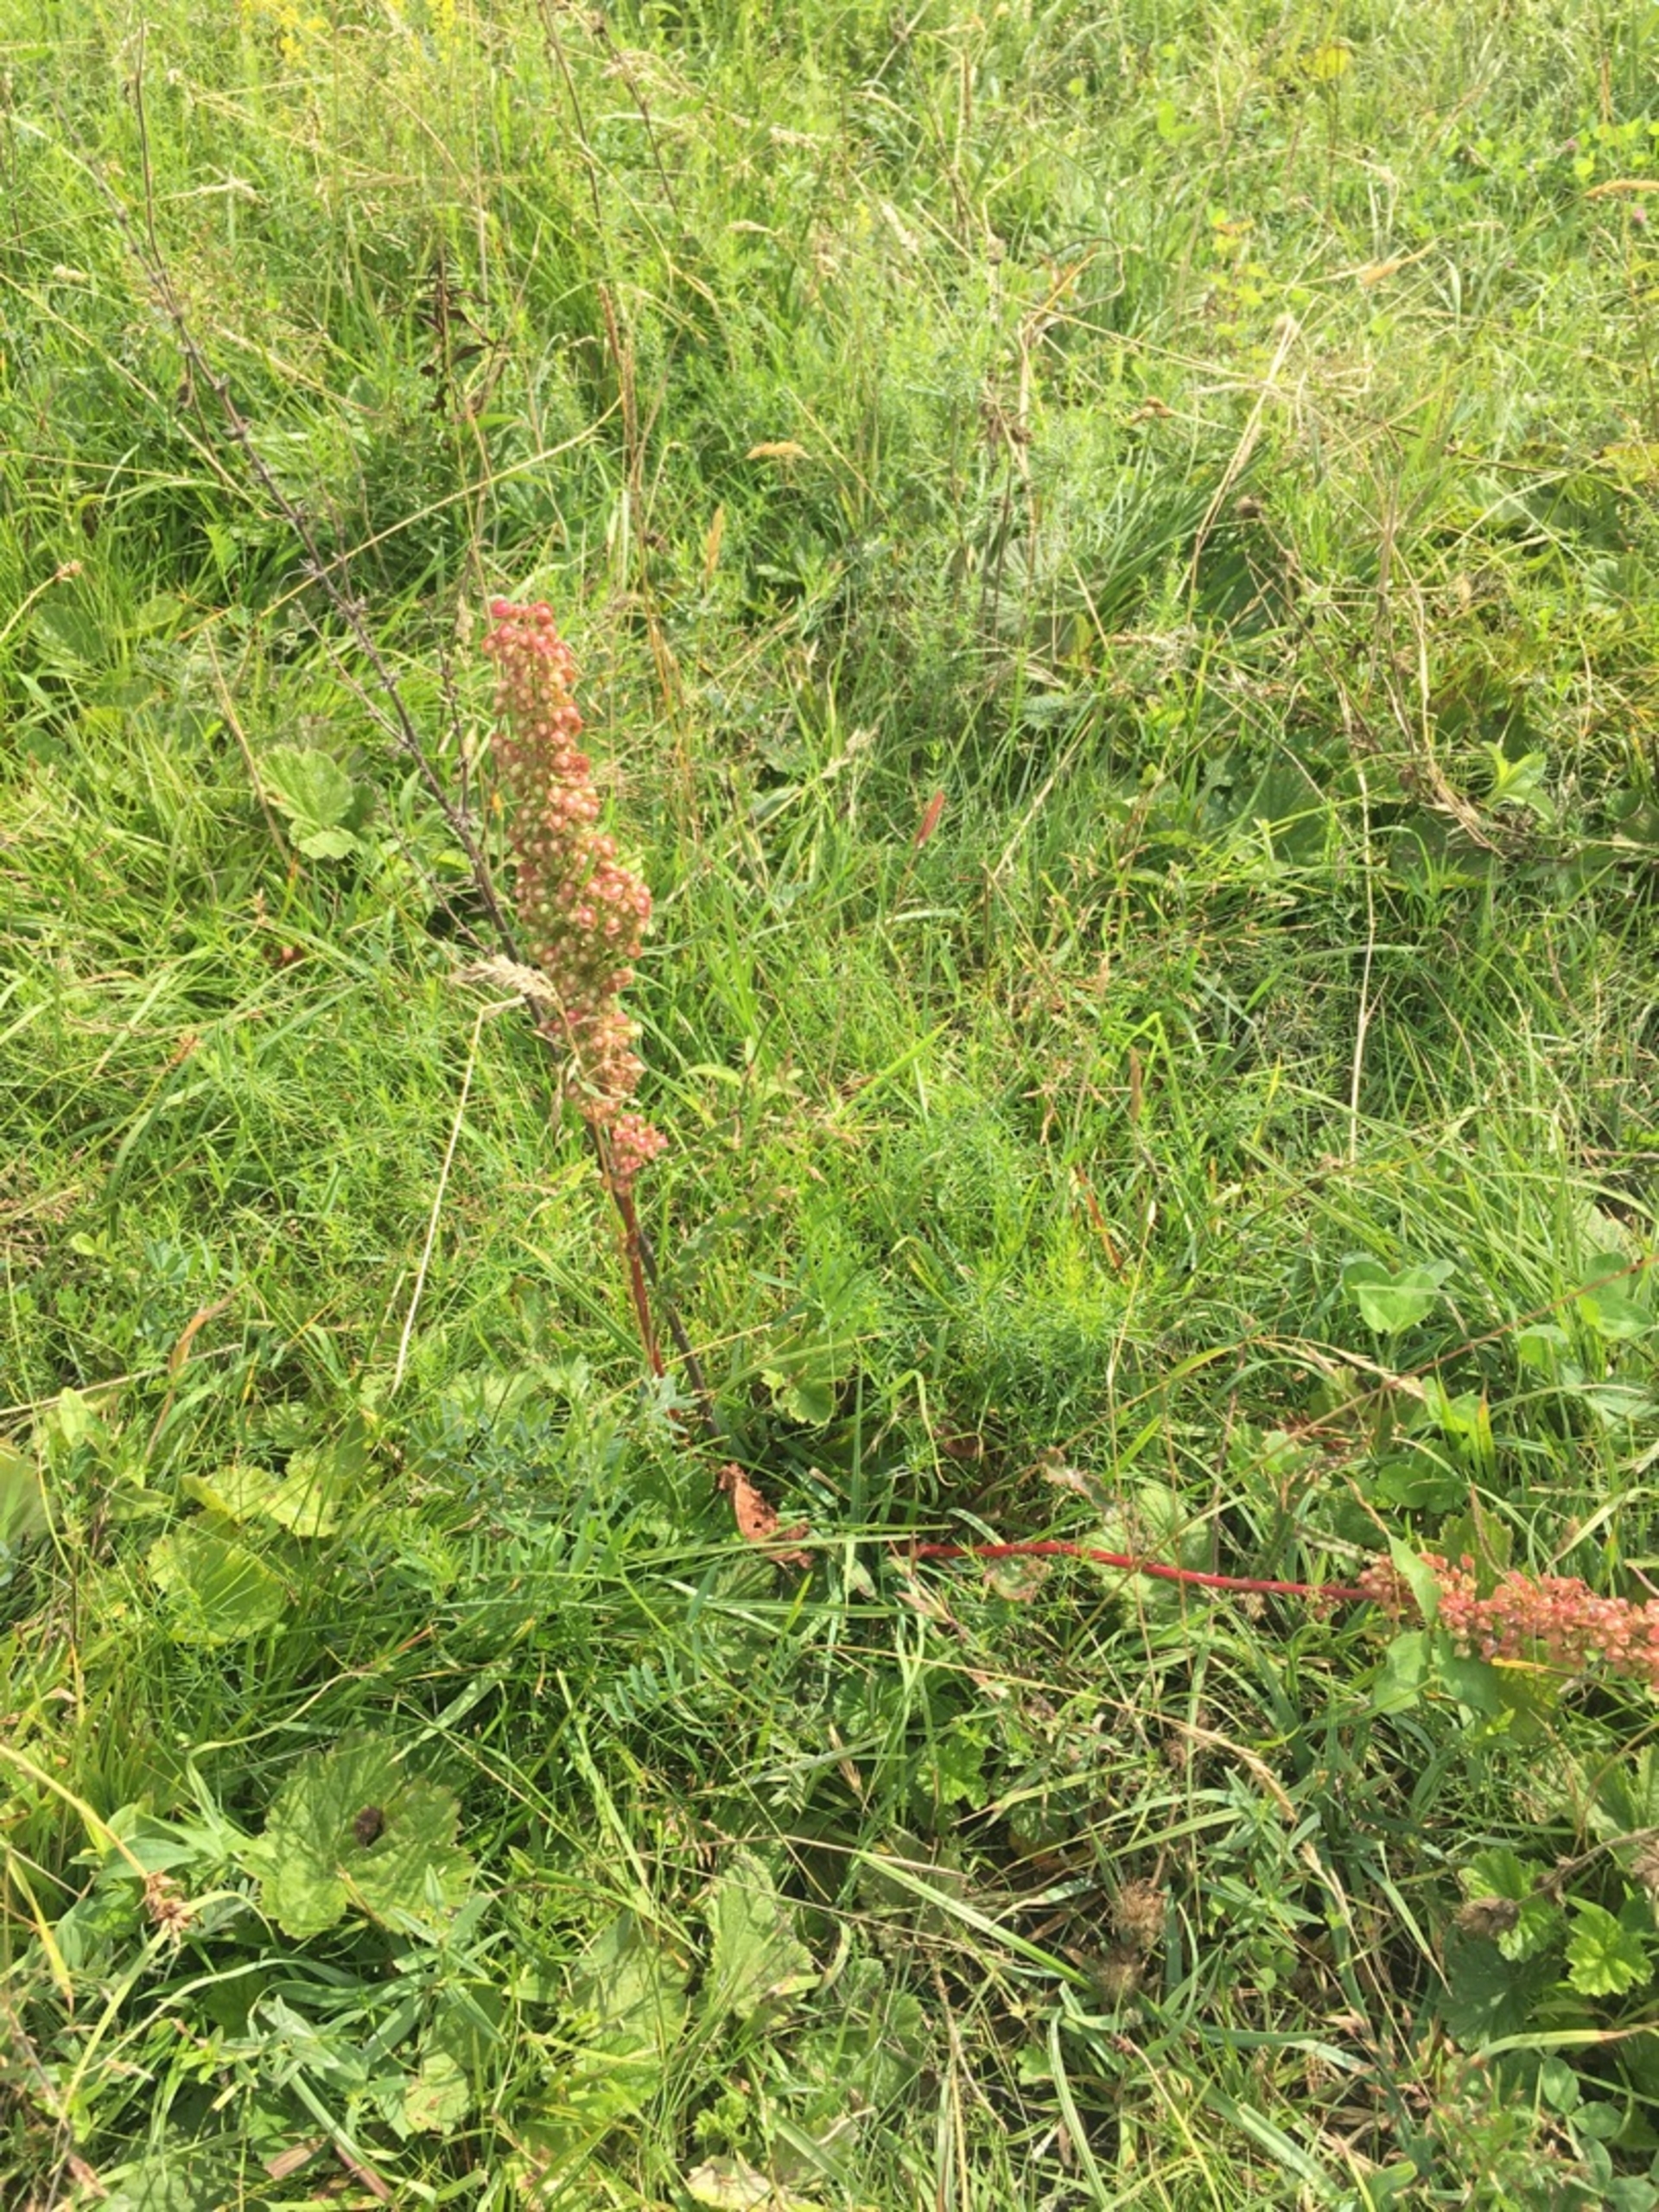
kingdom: Plantae
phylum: Tracheophyta
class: Magnoliopsida
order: Caryophyllales
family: Polygonaceae
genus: Rumex
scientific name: Rumex crispus
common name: Kruset skræppe
